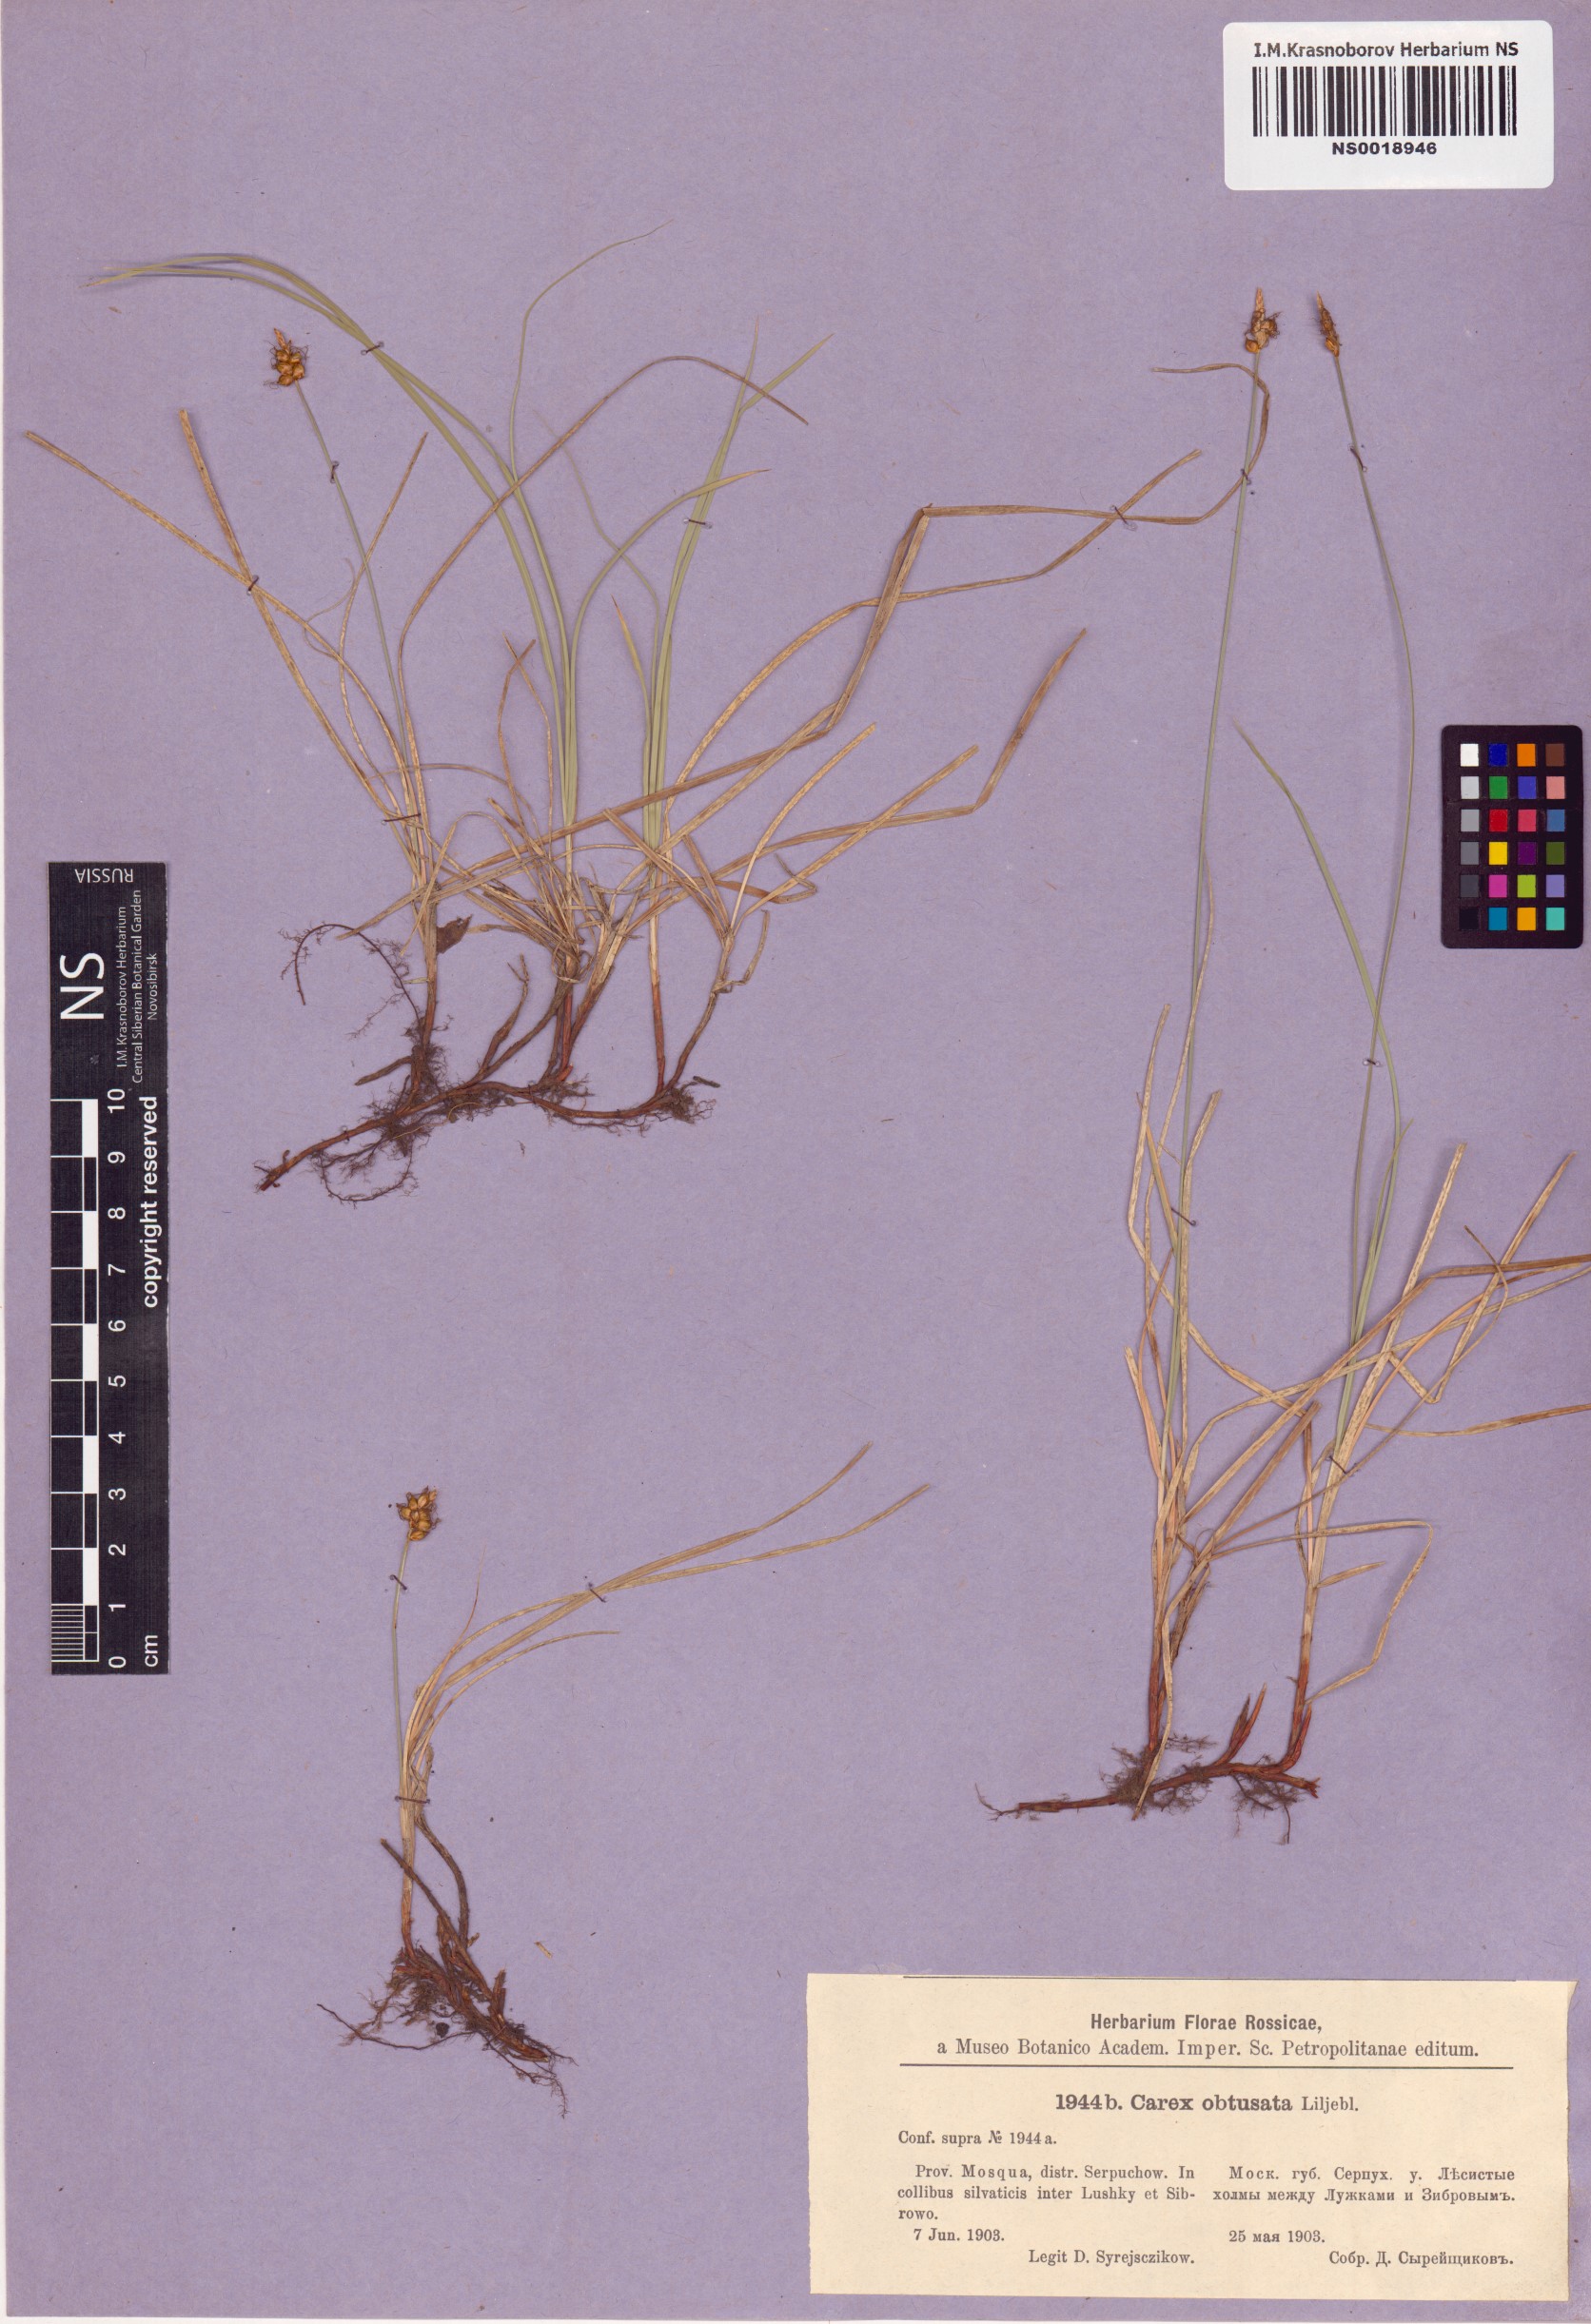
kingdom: Plantae
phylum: Tracheophyta
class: Liliopsida
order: Poales
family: Cyperaceae
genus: Carex
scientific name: Carex obtusata
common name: Blunt sedge
